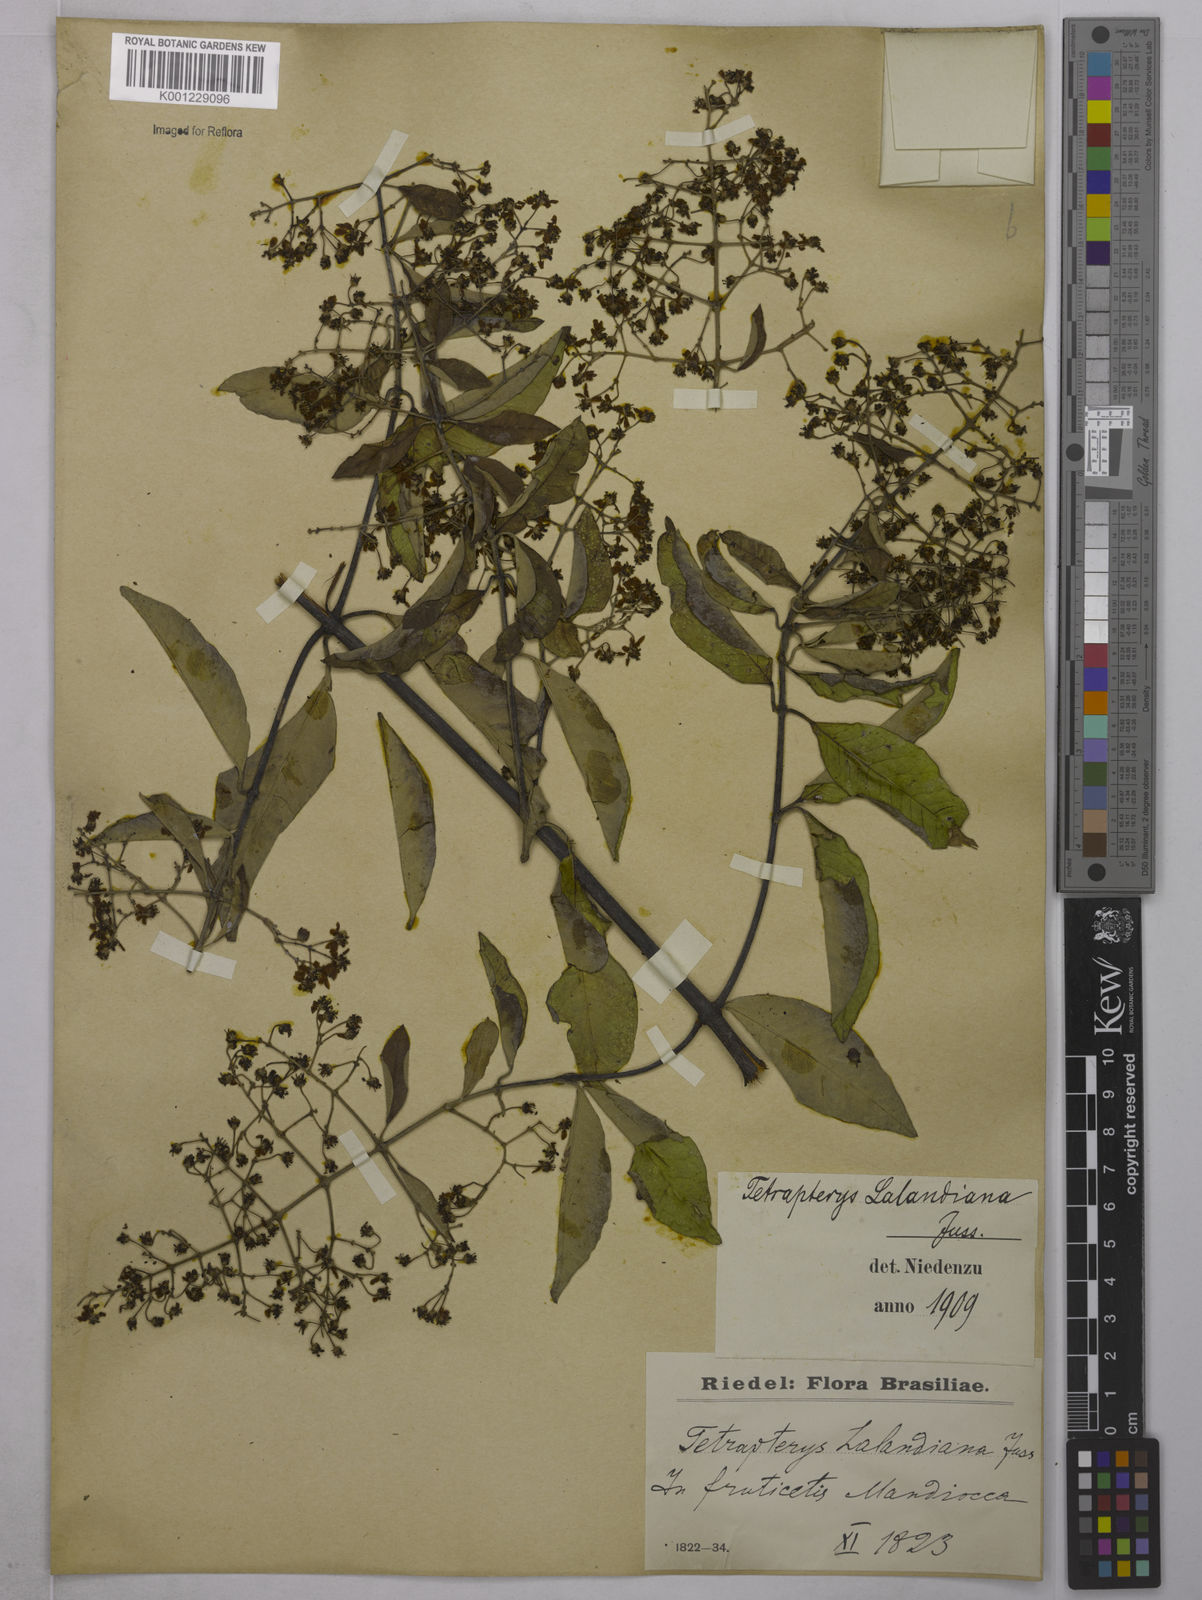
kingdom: Plantae
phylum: Tracheophyta
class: Magnoliopsida
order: Malpighiales
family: Malpighiaceae
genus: Niedenzuella
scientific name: Niedenzuella poeppigiana
